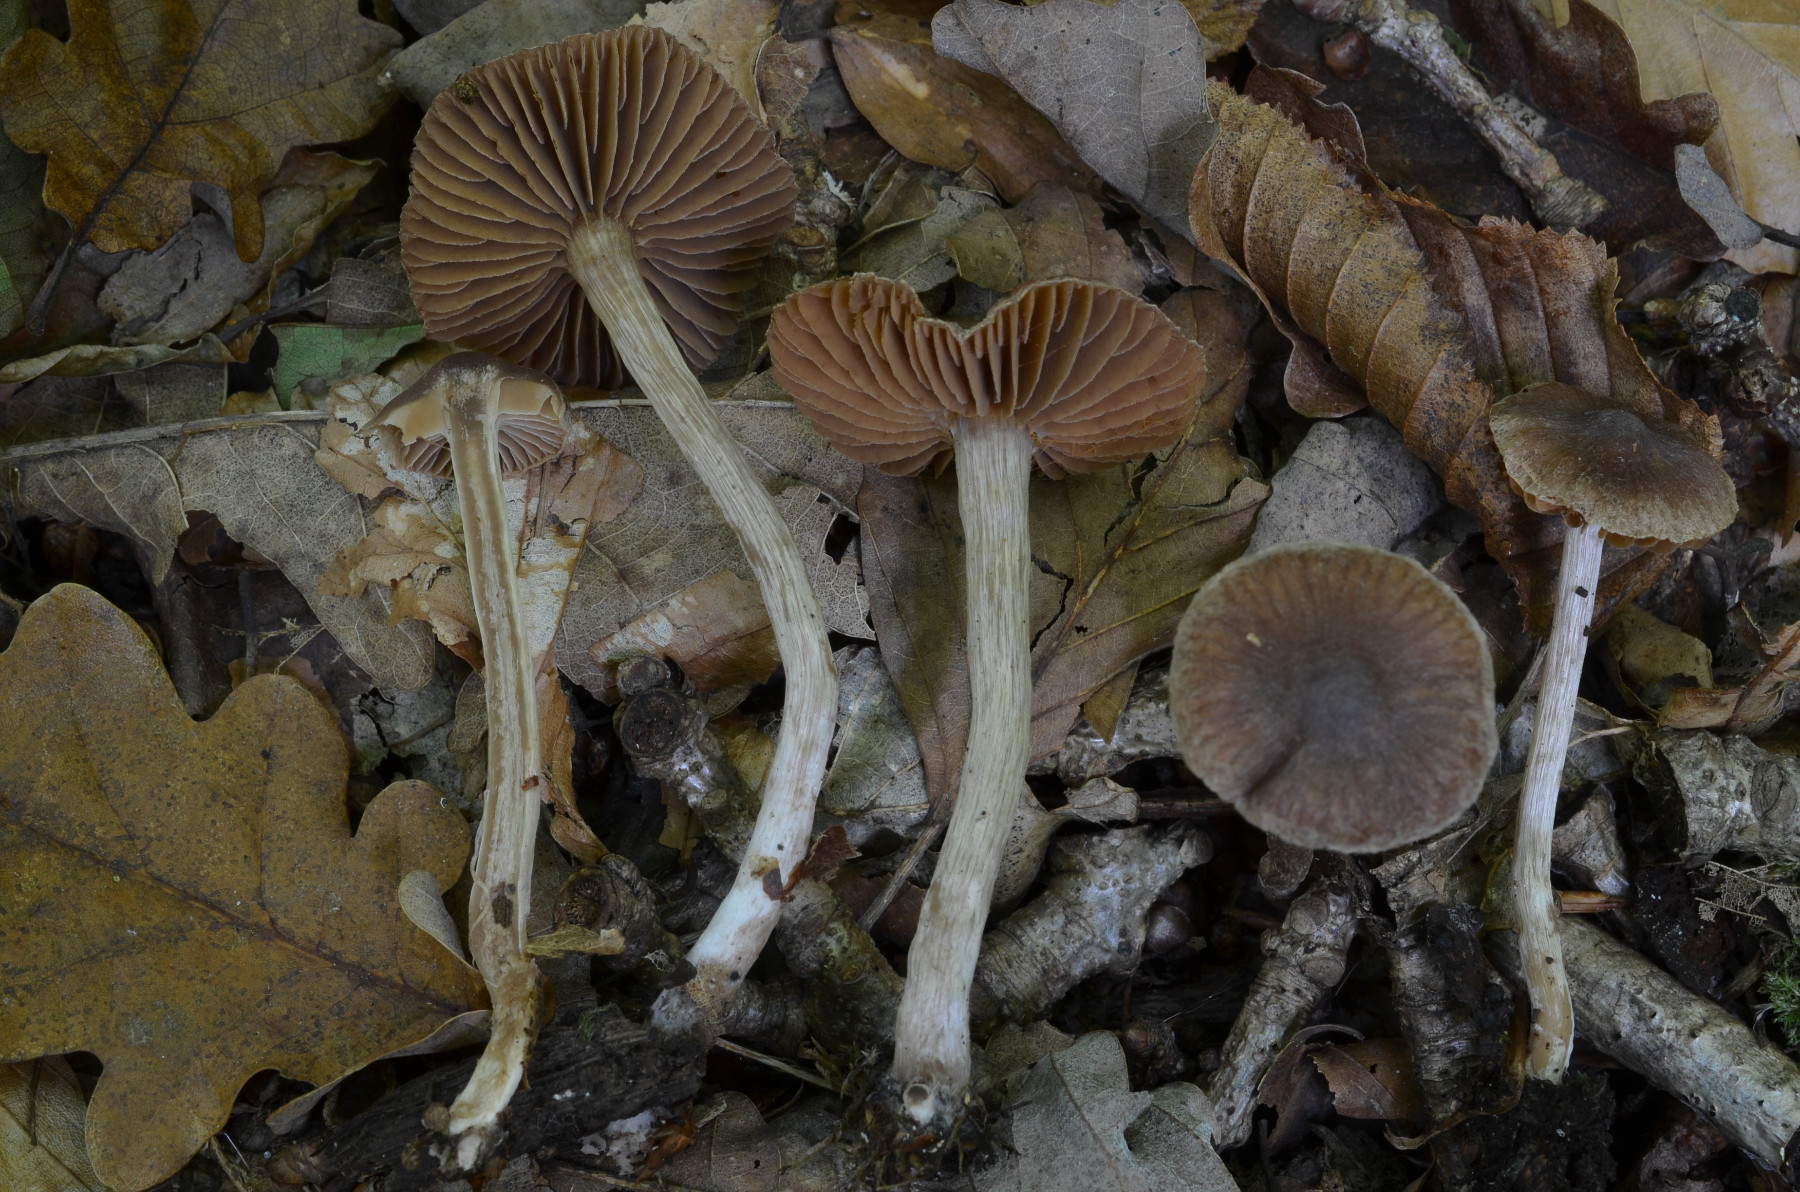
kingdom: Fungi
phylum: Basidiomycota
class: Agaricomycetes
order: Agaricales
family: Cortinariaceae
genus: Cortinarius
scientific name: Cortinarius hirtus
